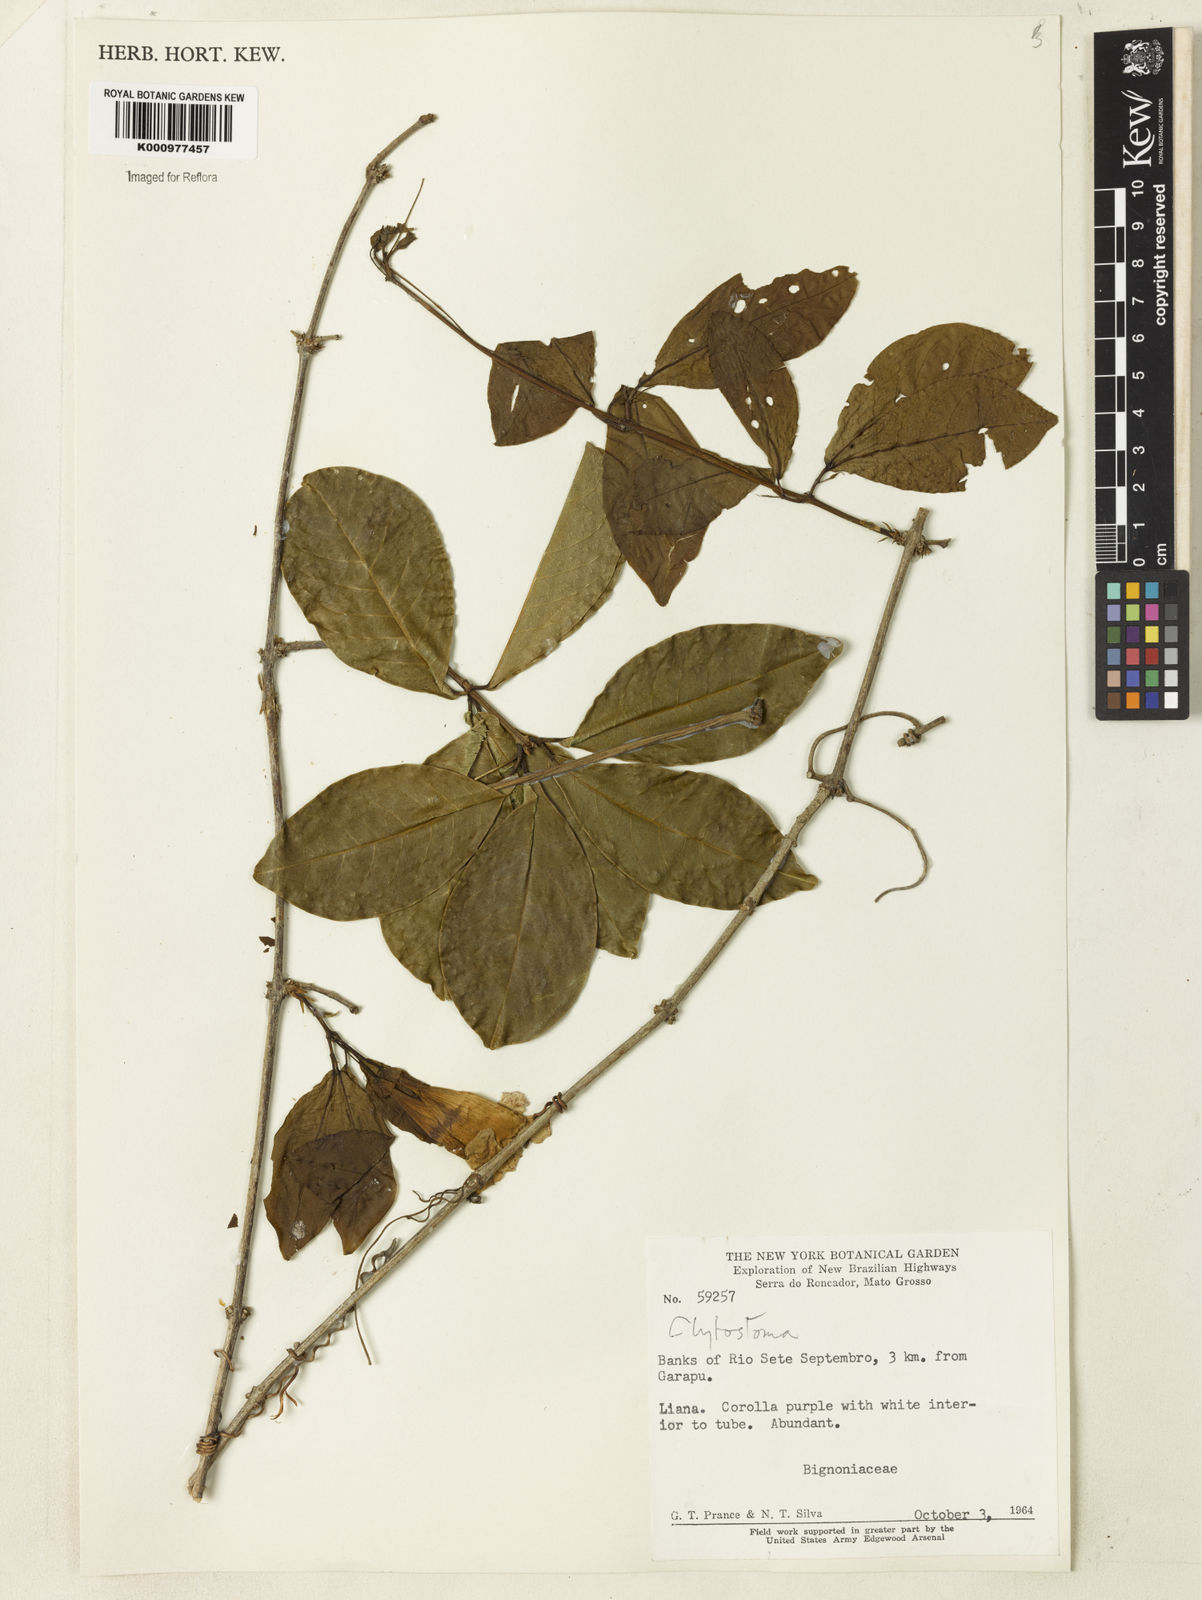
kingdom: Plantae
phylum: Tracheophyta
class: Magnoliopsida
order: Lamiales
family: Bignoniaceae
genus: Bignonia
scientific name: Bignonia
